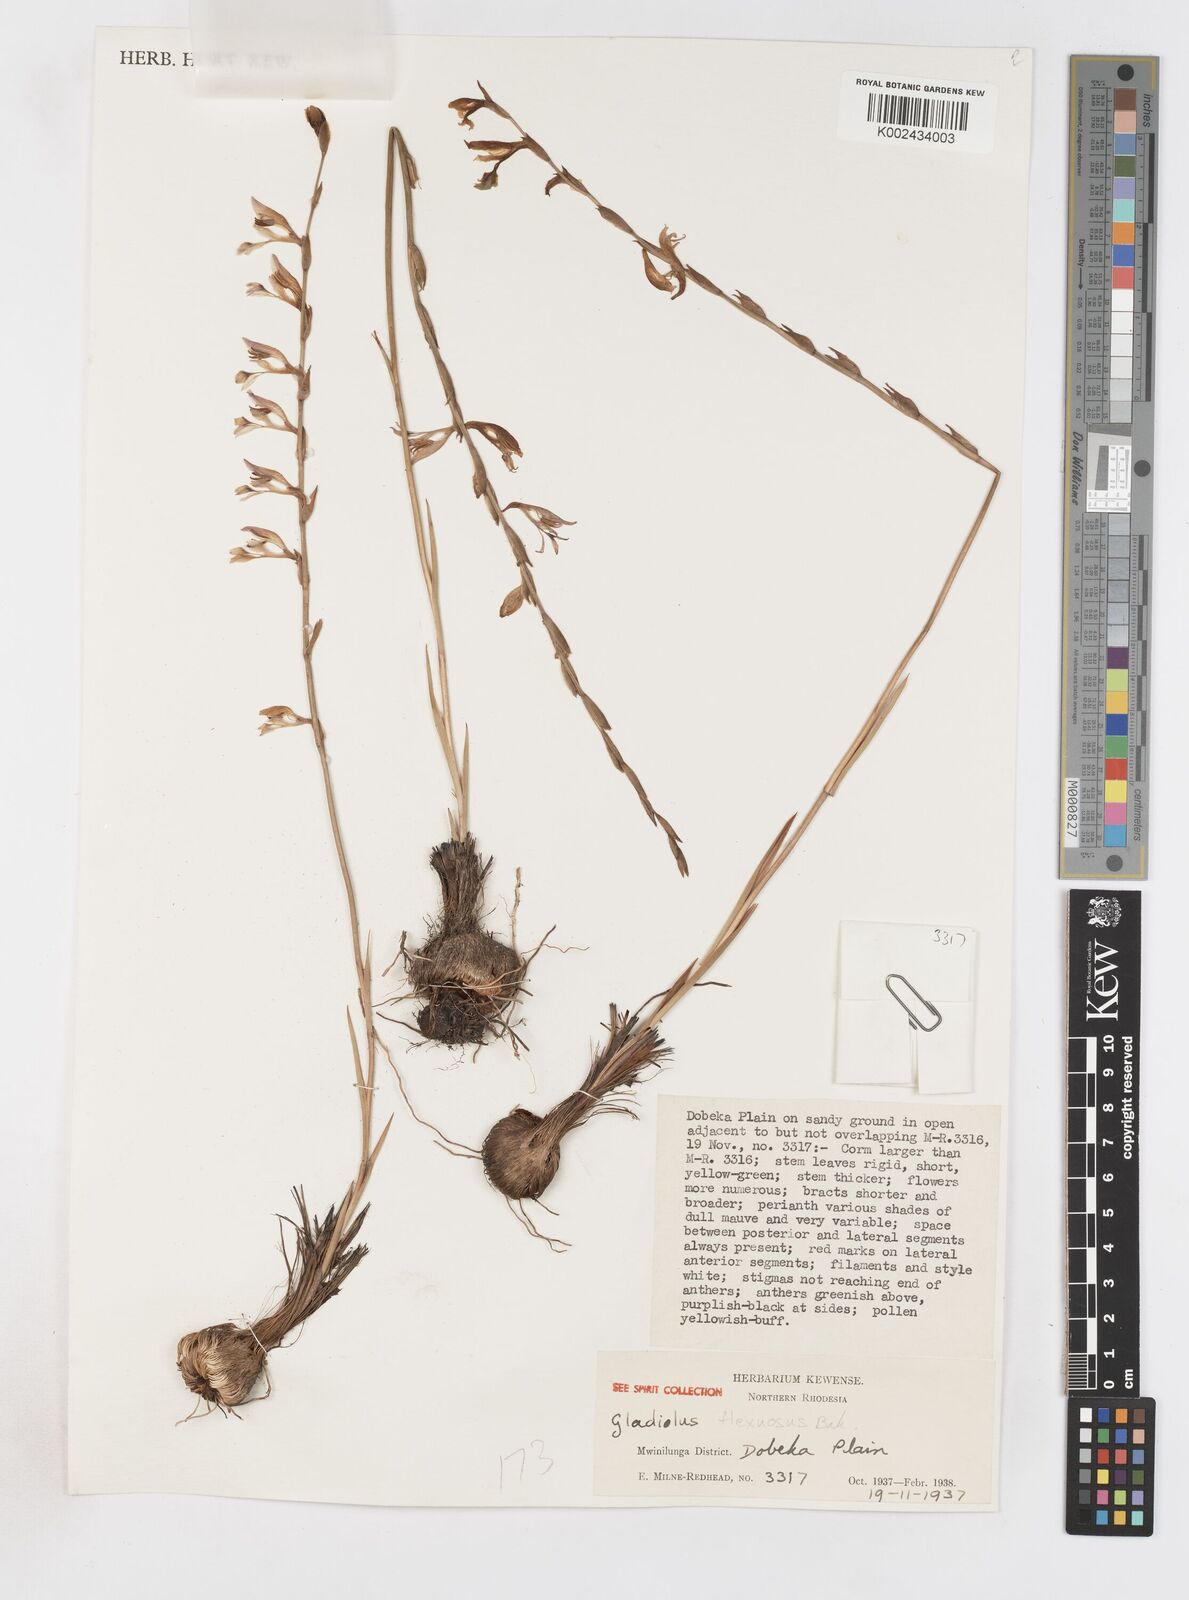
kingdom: Plantae
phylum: Tracheophyta
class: Liliopsida
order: Asparagales
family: Iridaceae
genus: Gladiolus
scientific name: Gladiolus atropurpureus
